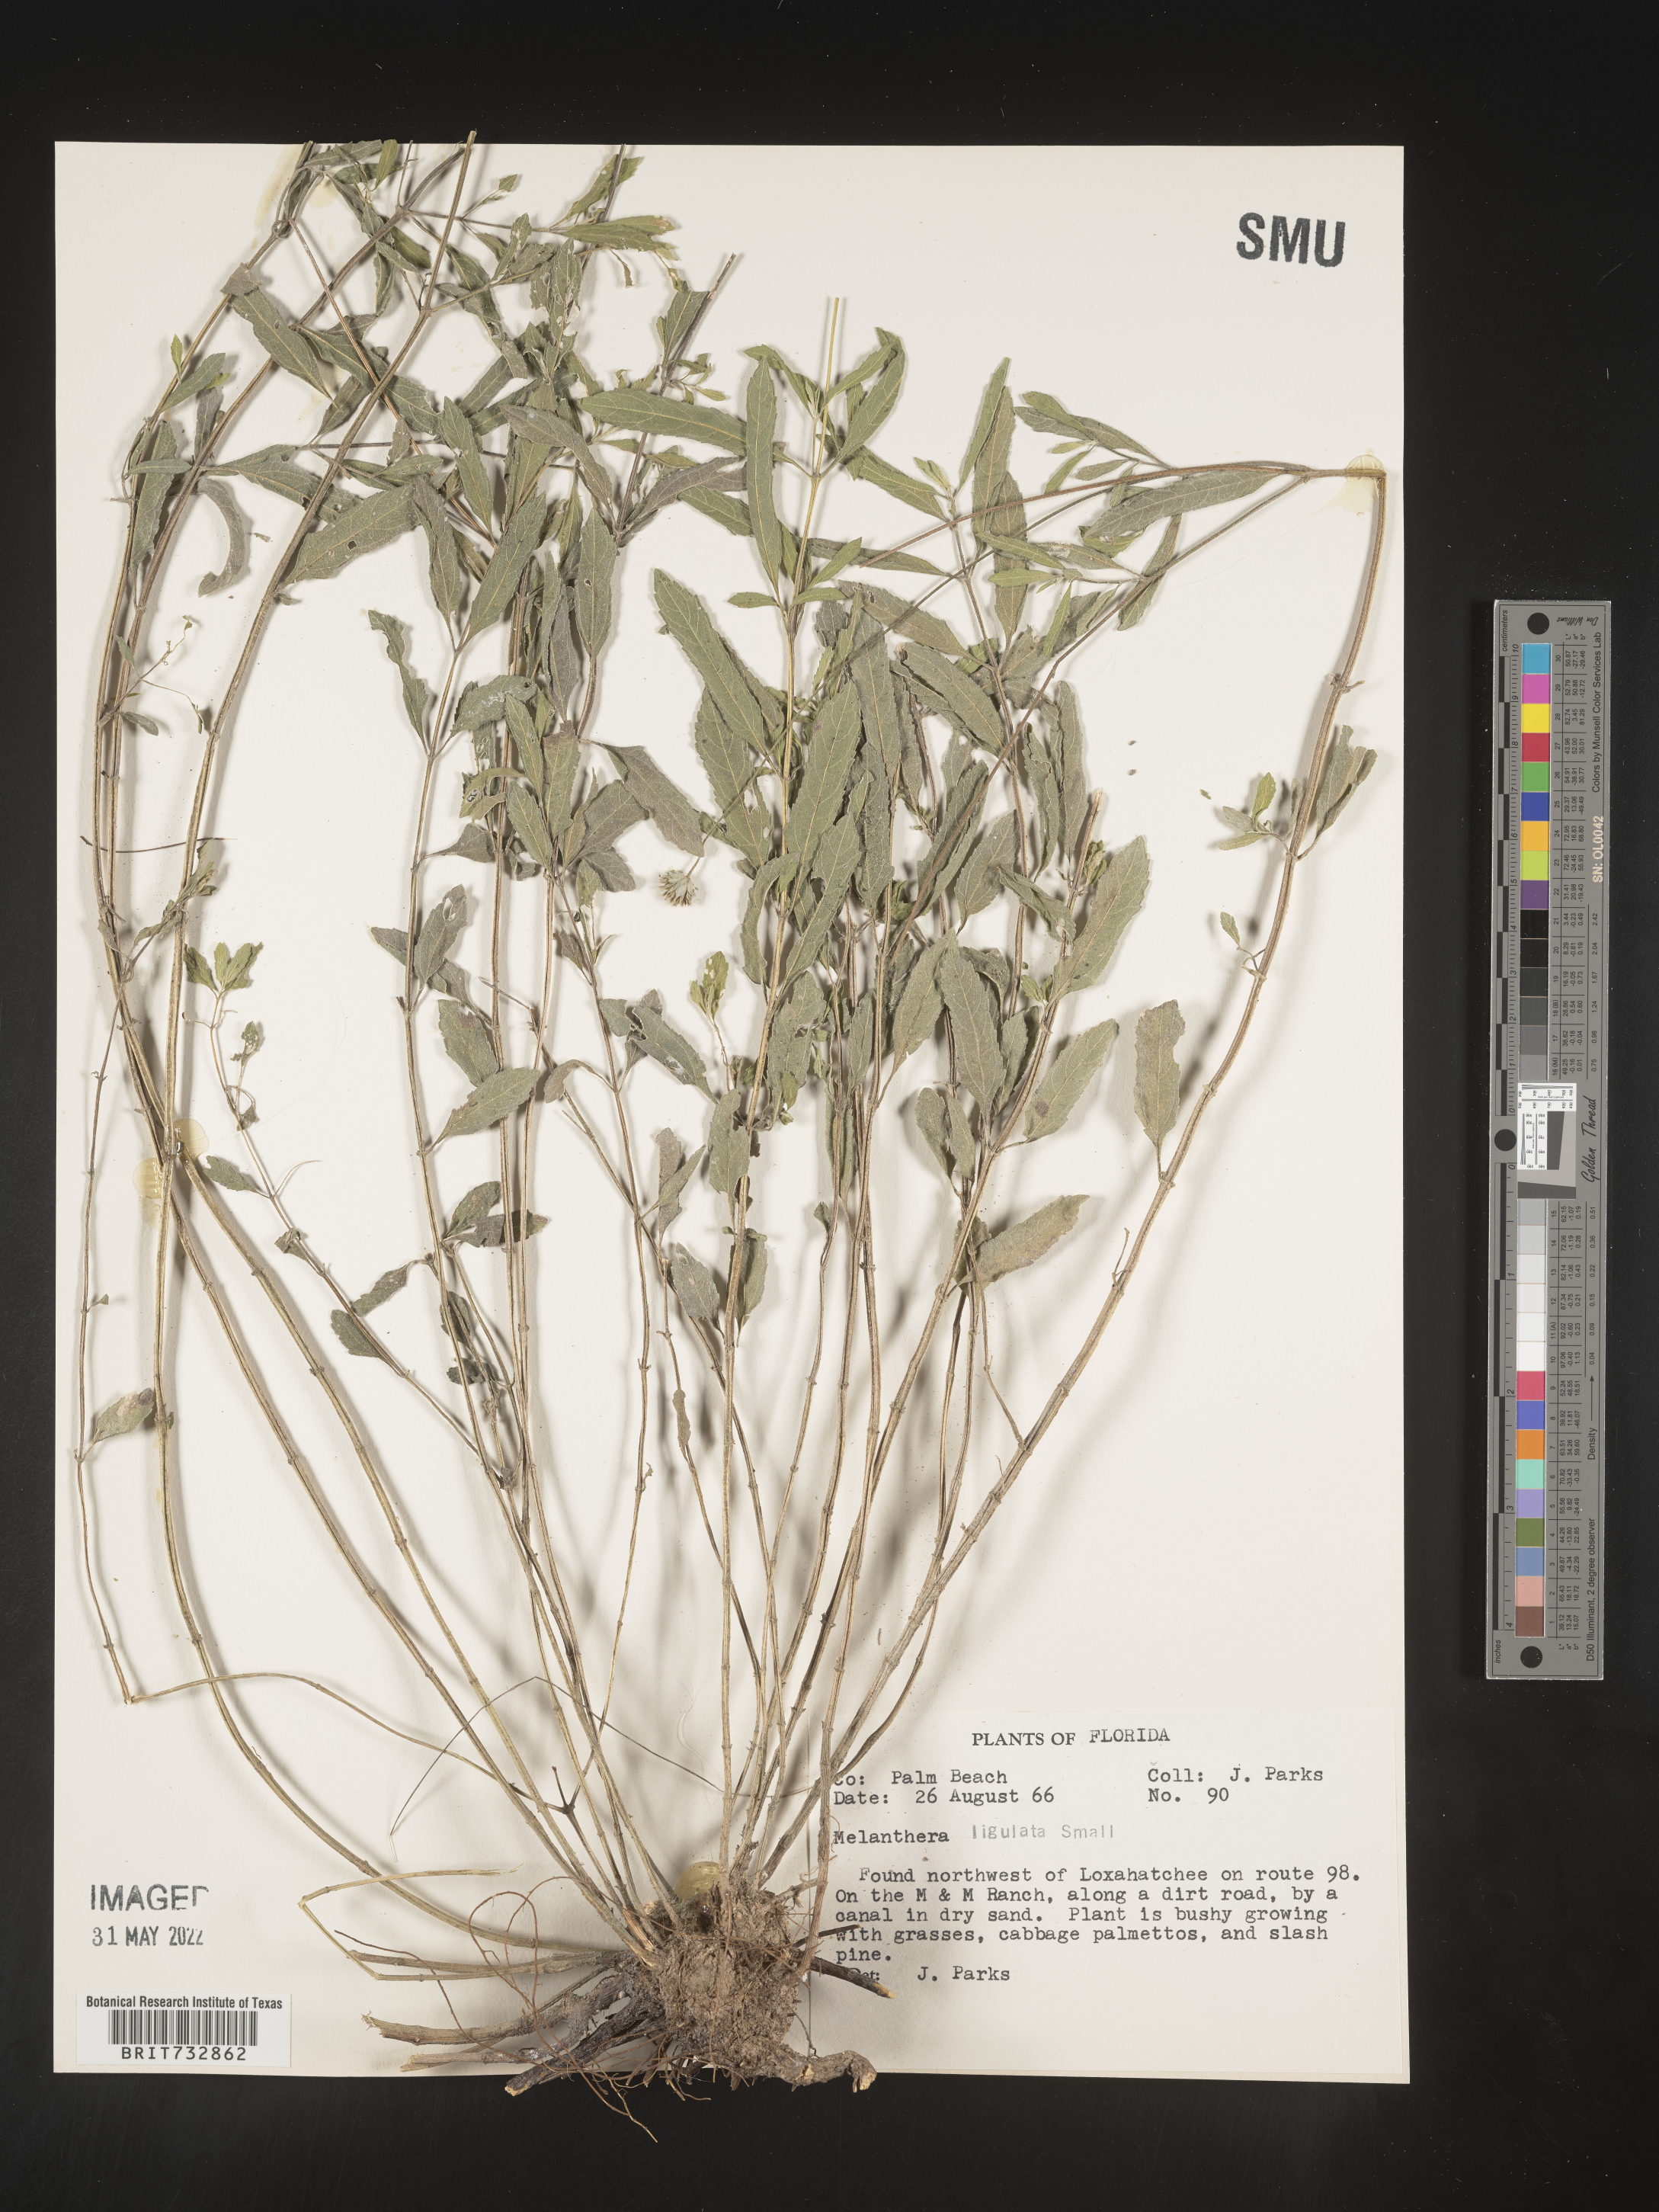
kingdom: Plantae
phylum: Tracheophyta
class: Magnoliopsida
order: Asterales
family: Asteraceae
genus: Melanthera
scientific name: Melanthera nivea
